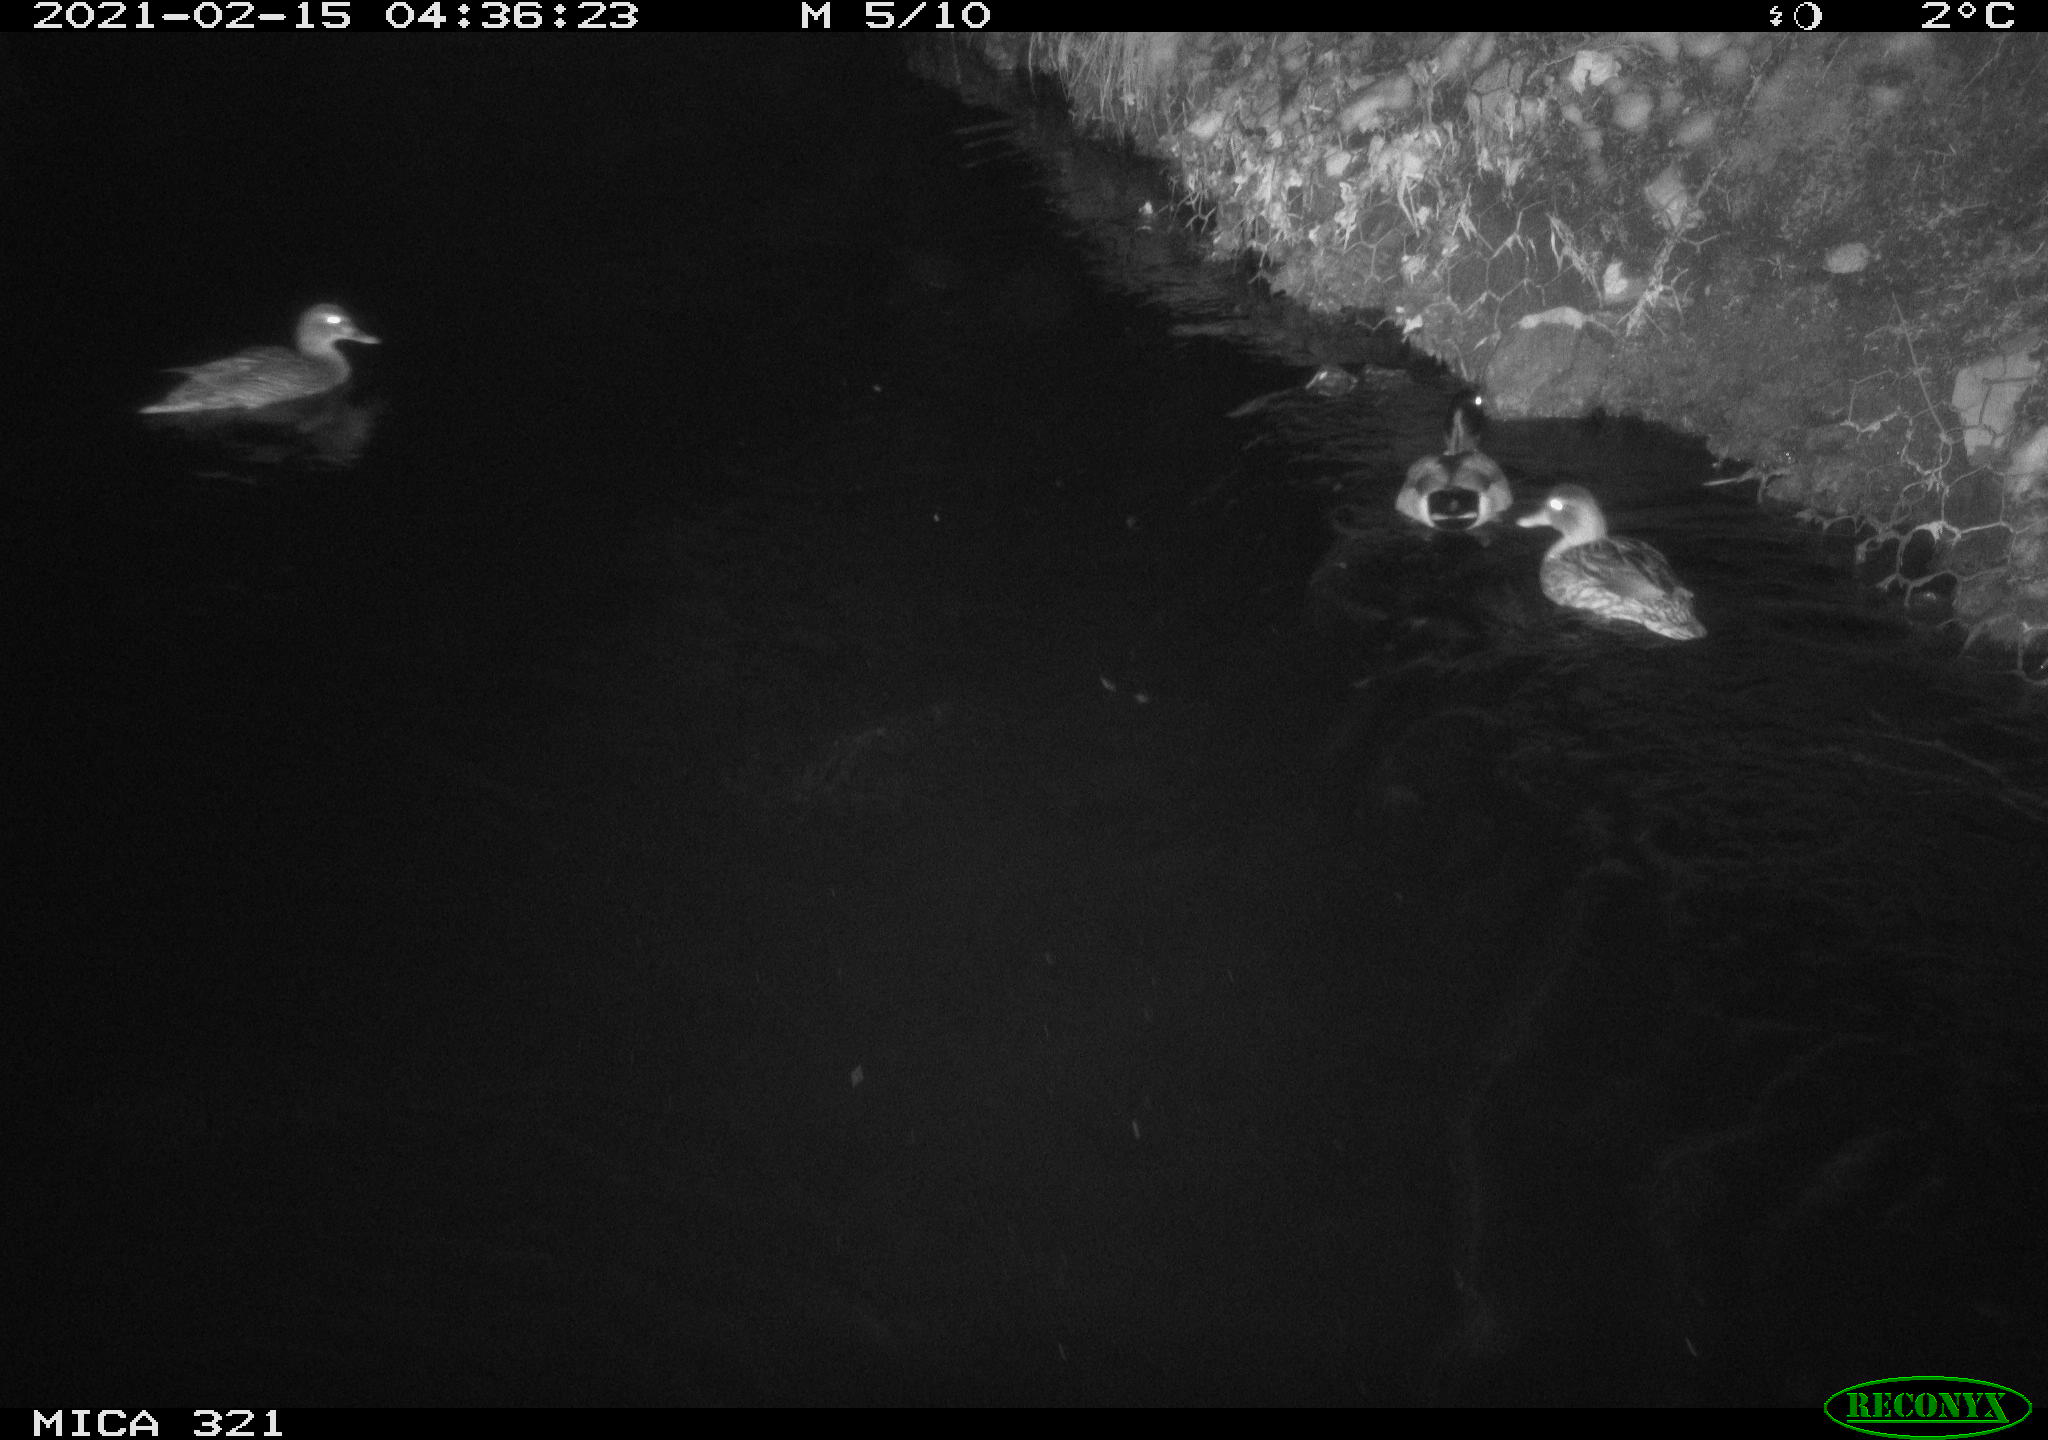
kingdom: Animalia
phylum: Chordata
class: Aves
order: Anseriformes
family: Anatidae
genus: Anas
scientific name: Anas platyrhynchos
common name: Mallard
